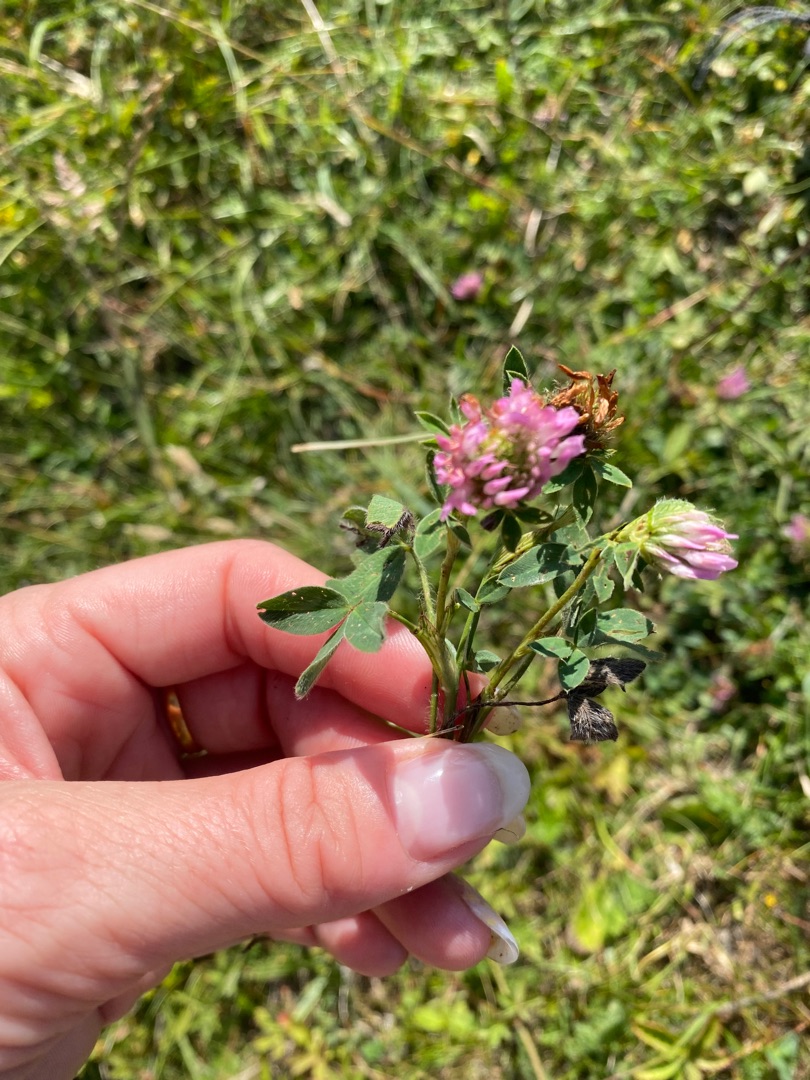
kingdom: Plantae
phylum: Tracheophyta
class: Magnoliopsida
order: Fabales
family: Fabaceae
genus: Trifolium
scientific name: Trifolium pratense
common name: Rød-kløver
